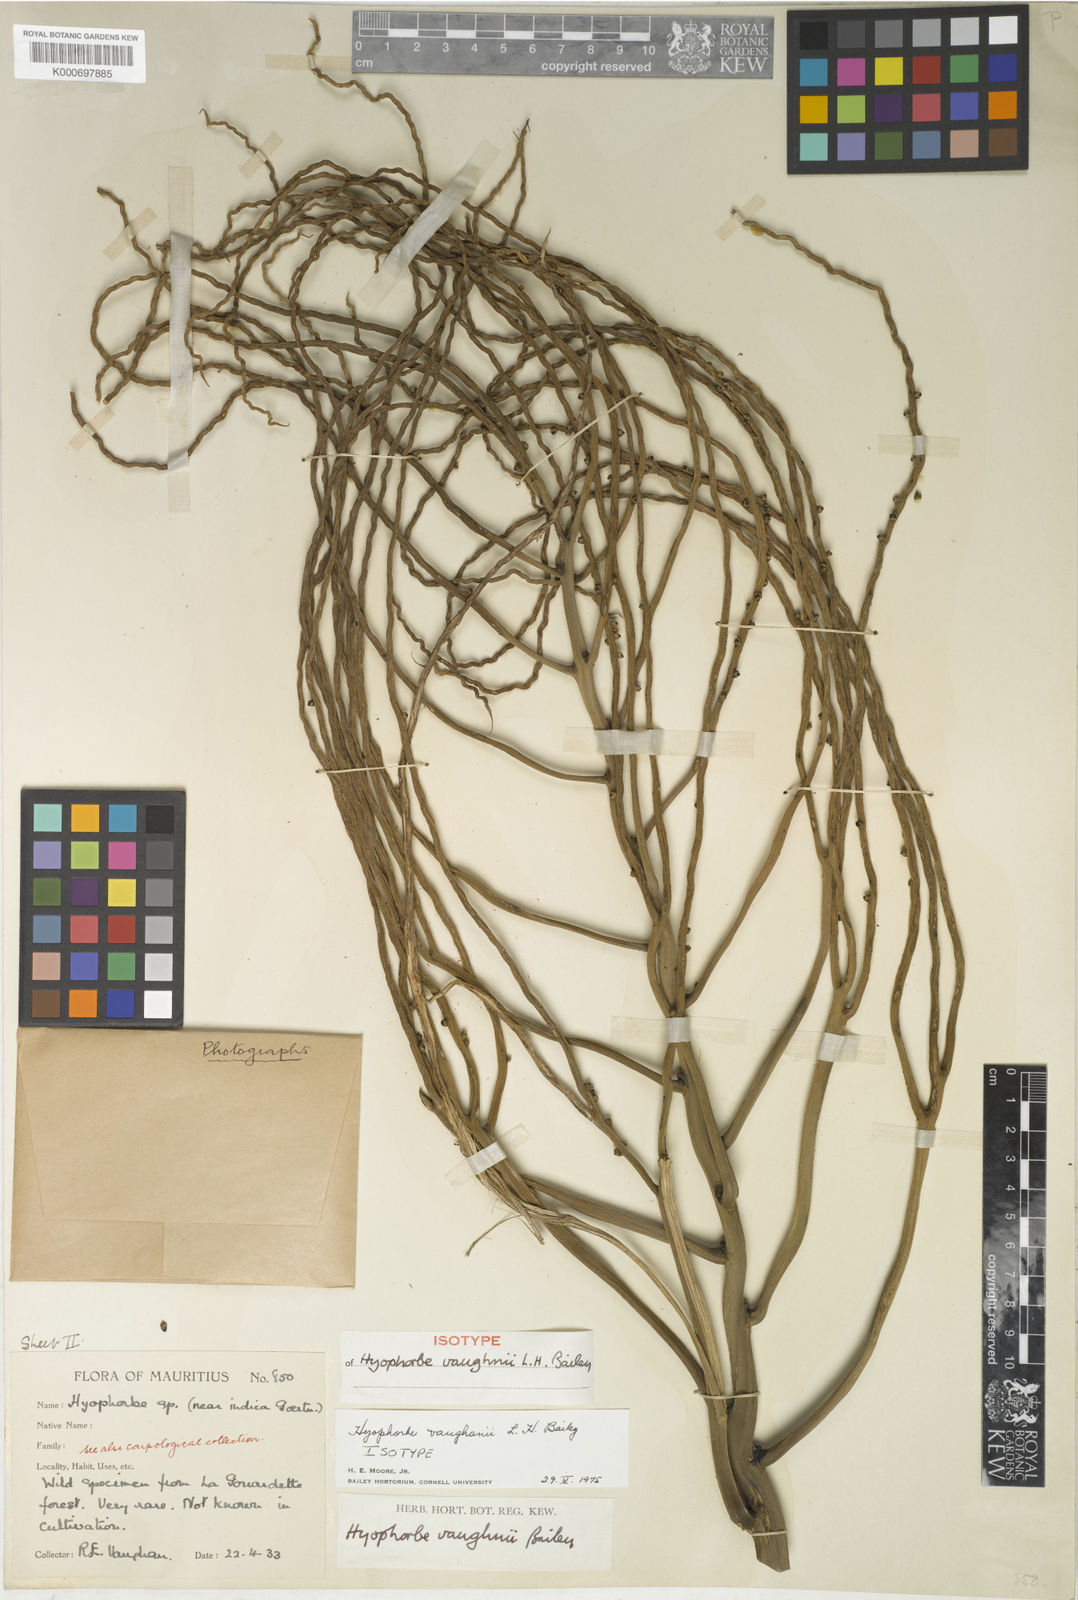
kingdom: Plantae
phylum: Tracheophyta
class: Liliopsida
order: Arecales
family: Arecaceae
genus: Hyophorbe
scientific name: Hyophorbe vaughanii
